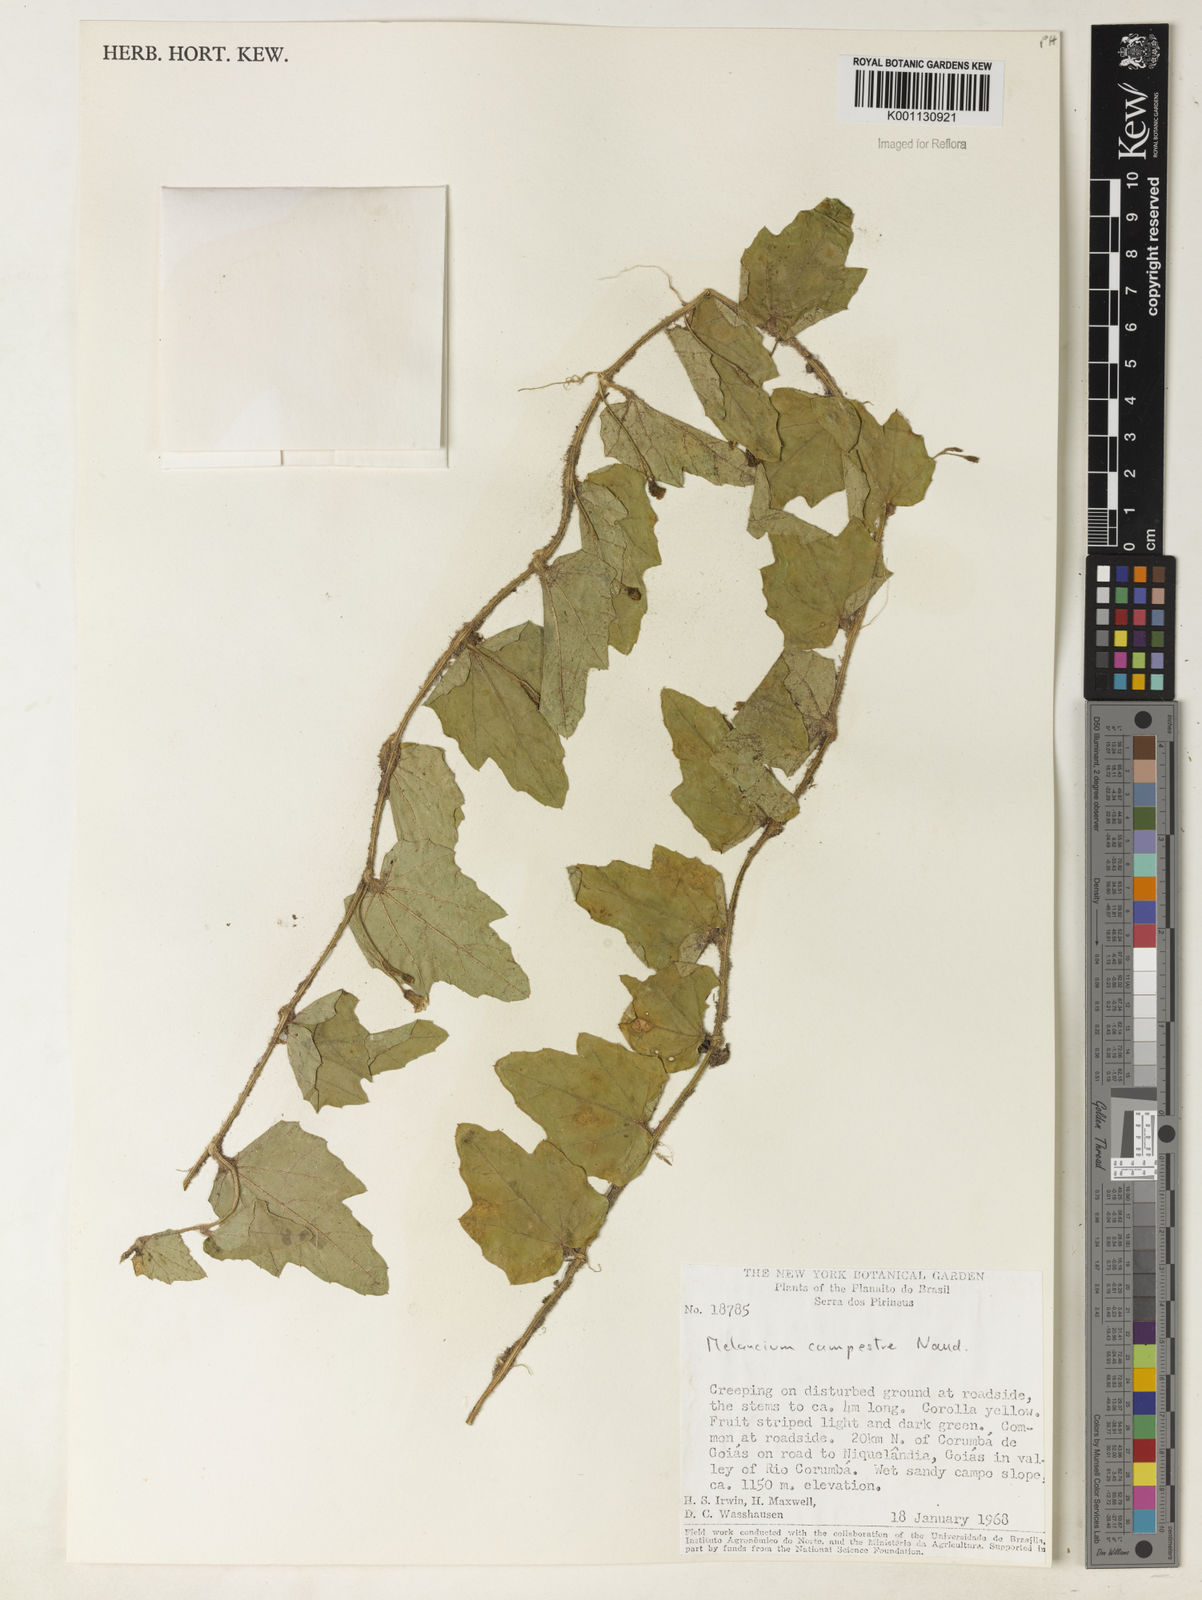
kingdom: Plantae
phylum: Tracheophyta
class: Magnoliopsida
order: Cucurbitales
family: Cucurbitaceae
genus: Melothria
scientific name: Melothria campestris
